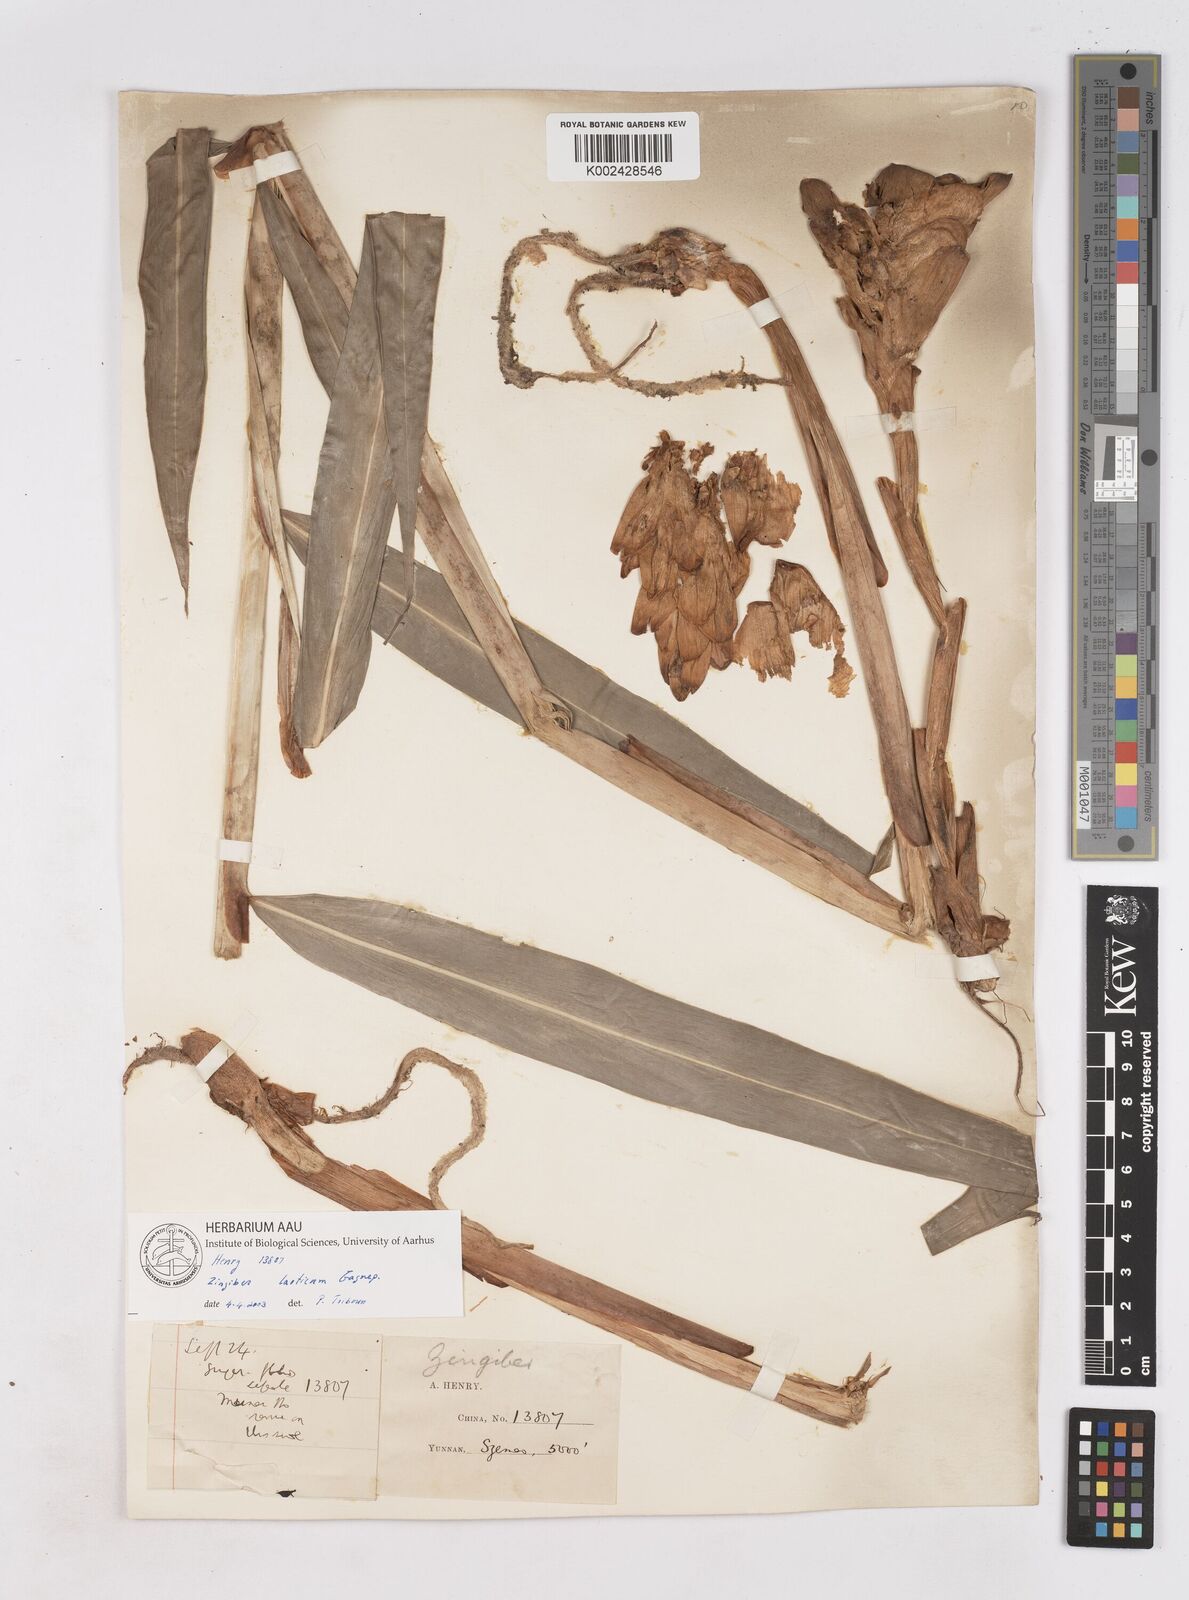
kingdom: Plantae
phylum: Tracheophyta
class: Liliopsida
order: Zingiberales
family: Zingiberaceae
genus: Zingiber
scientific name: Zingiber
